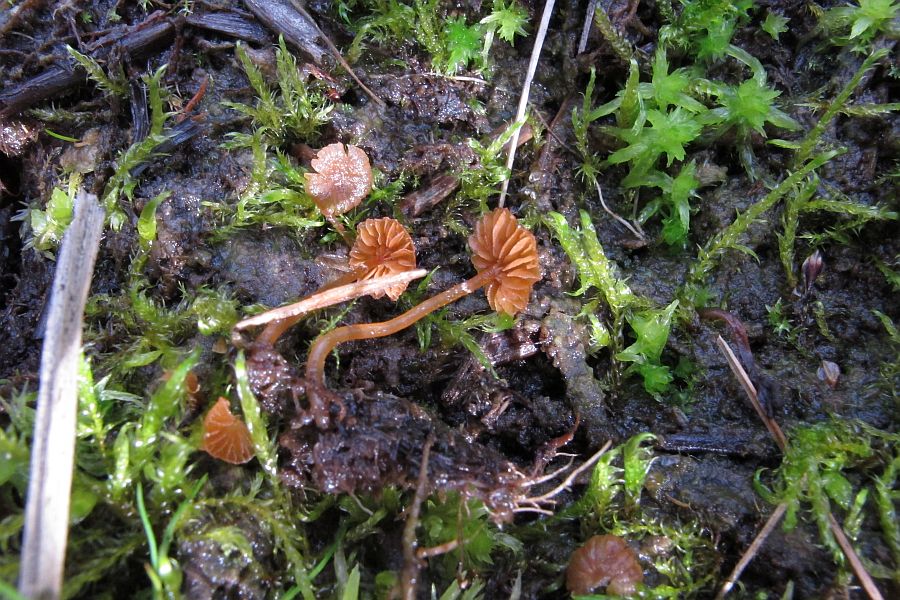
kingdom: Fungi
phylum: Basidiomycota
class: Agaricomycetes
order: Agaricales
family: Hymenogastraceae
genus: Galerina
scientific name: Galerina jaapii
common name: hvidbæltet hjelmhat
